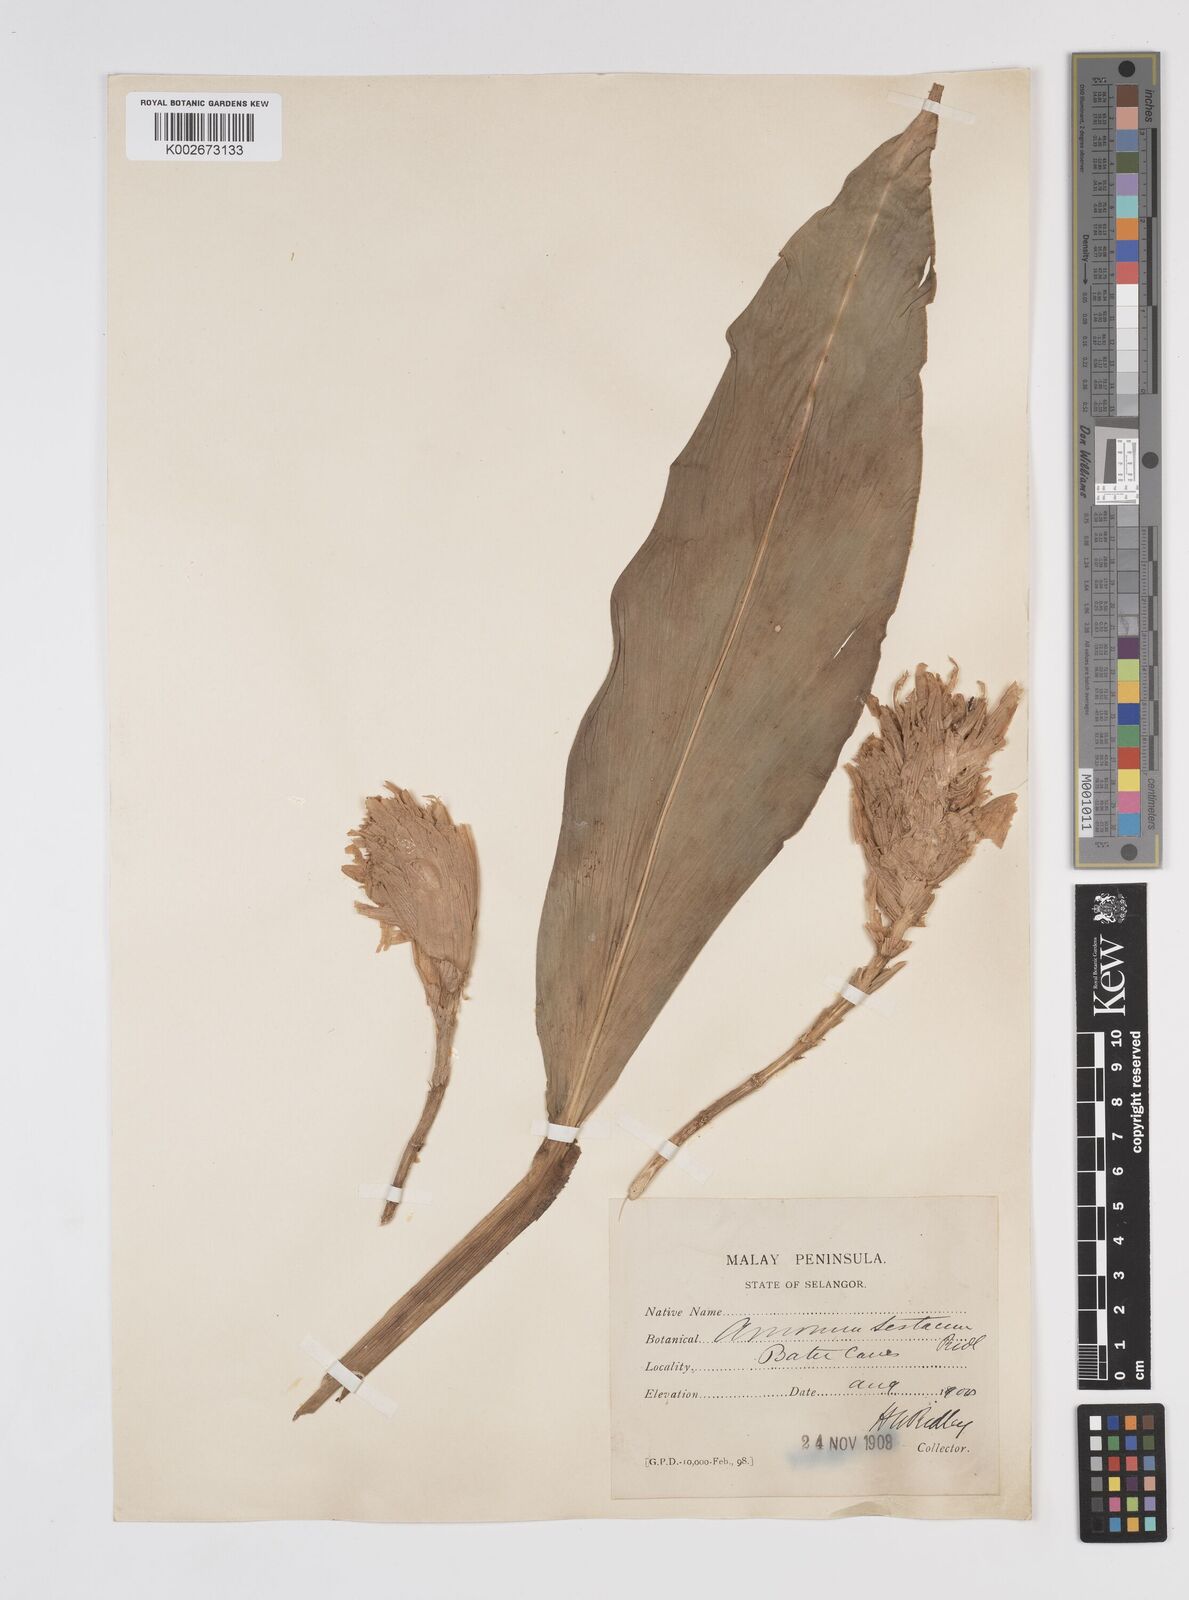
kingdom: Plantae
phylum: Tracheophyta
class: Liliopsida
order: Zingiberales
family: Zingiberaceae
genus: Wurfbainia
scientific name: Wurfbainia testacea
